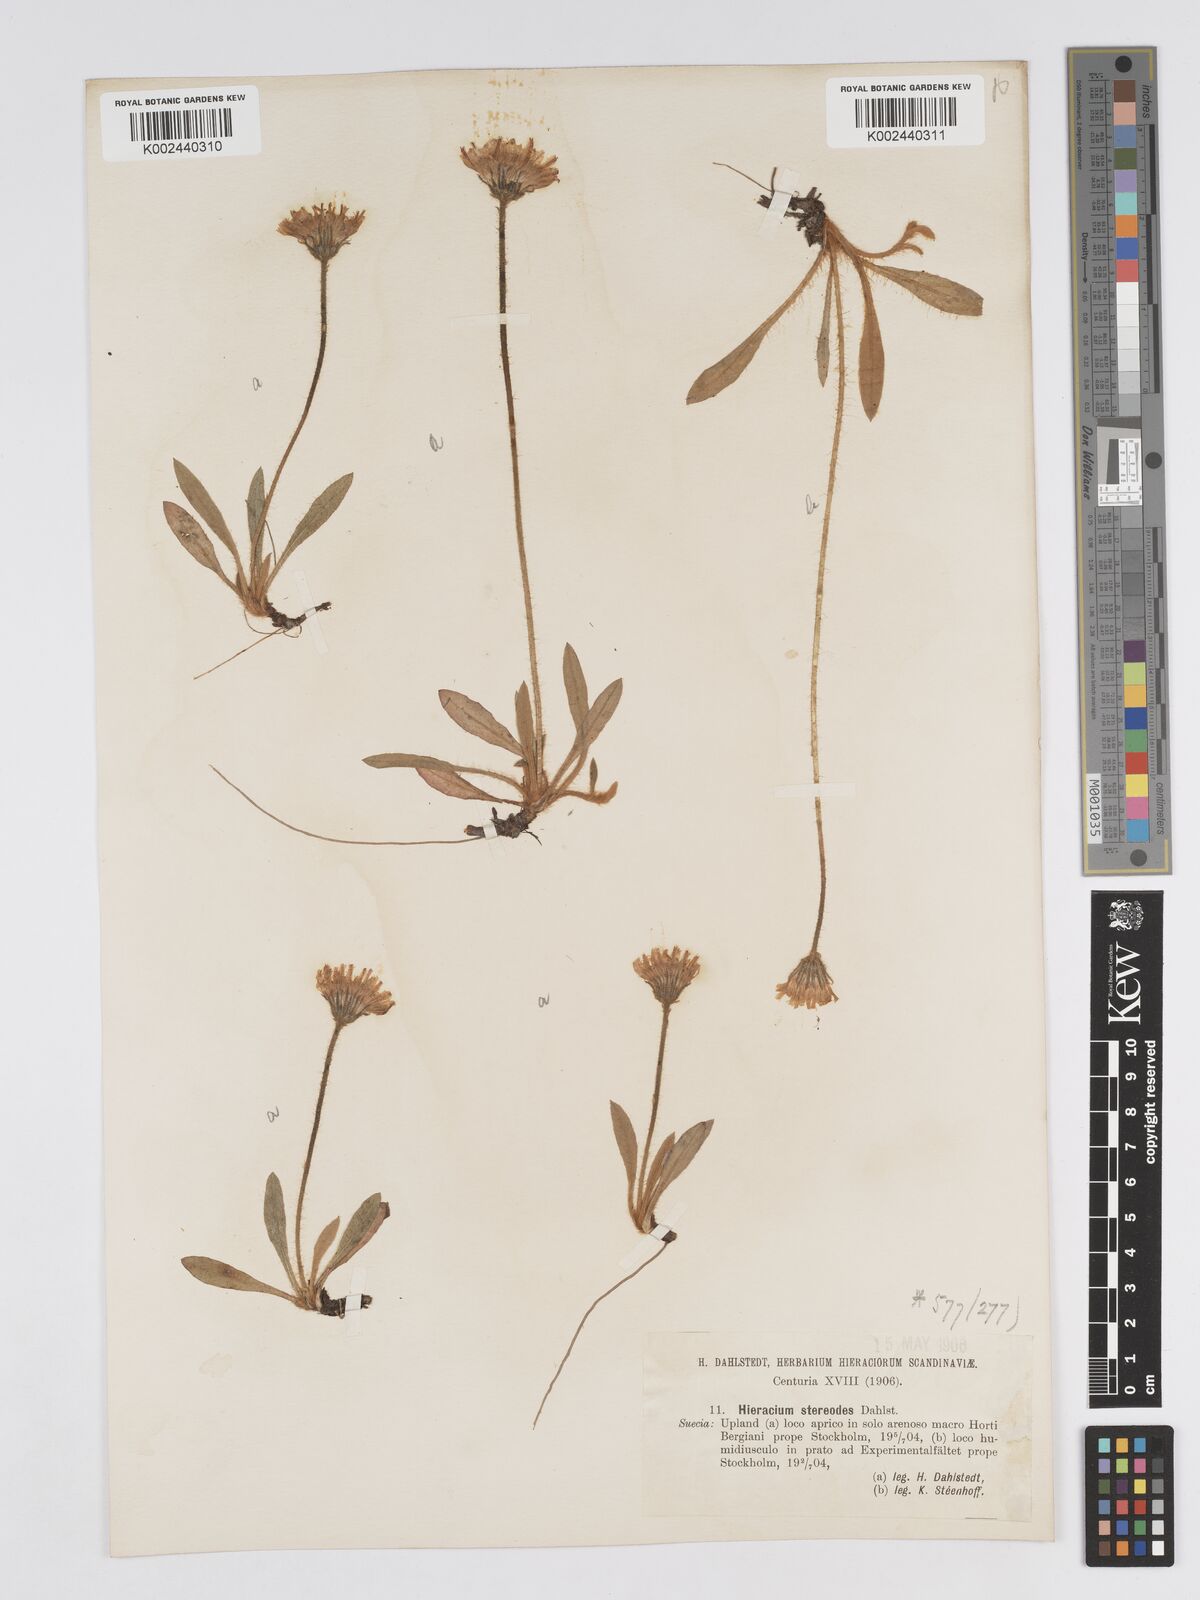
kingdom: Plantae
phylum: Tracheophyta
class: Magnoliopsida
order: Asterales
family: Asteraceae
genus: Pilosella
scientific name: Pilosella officinarum
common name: Mouse-ear hawkweed
